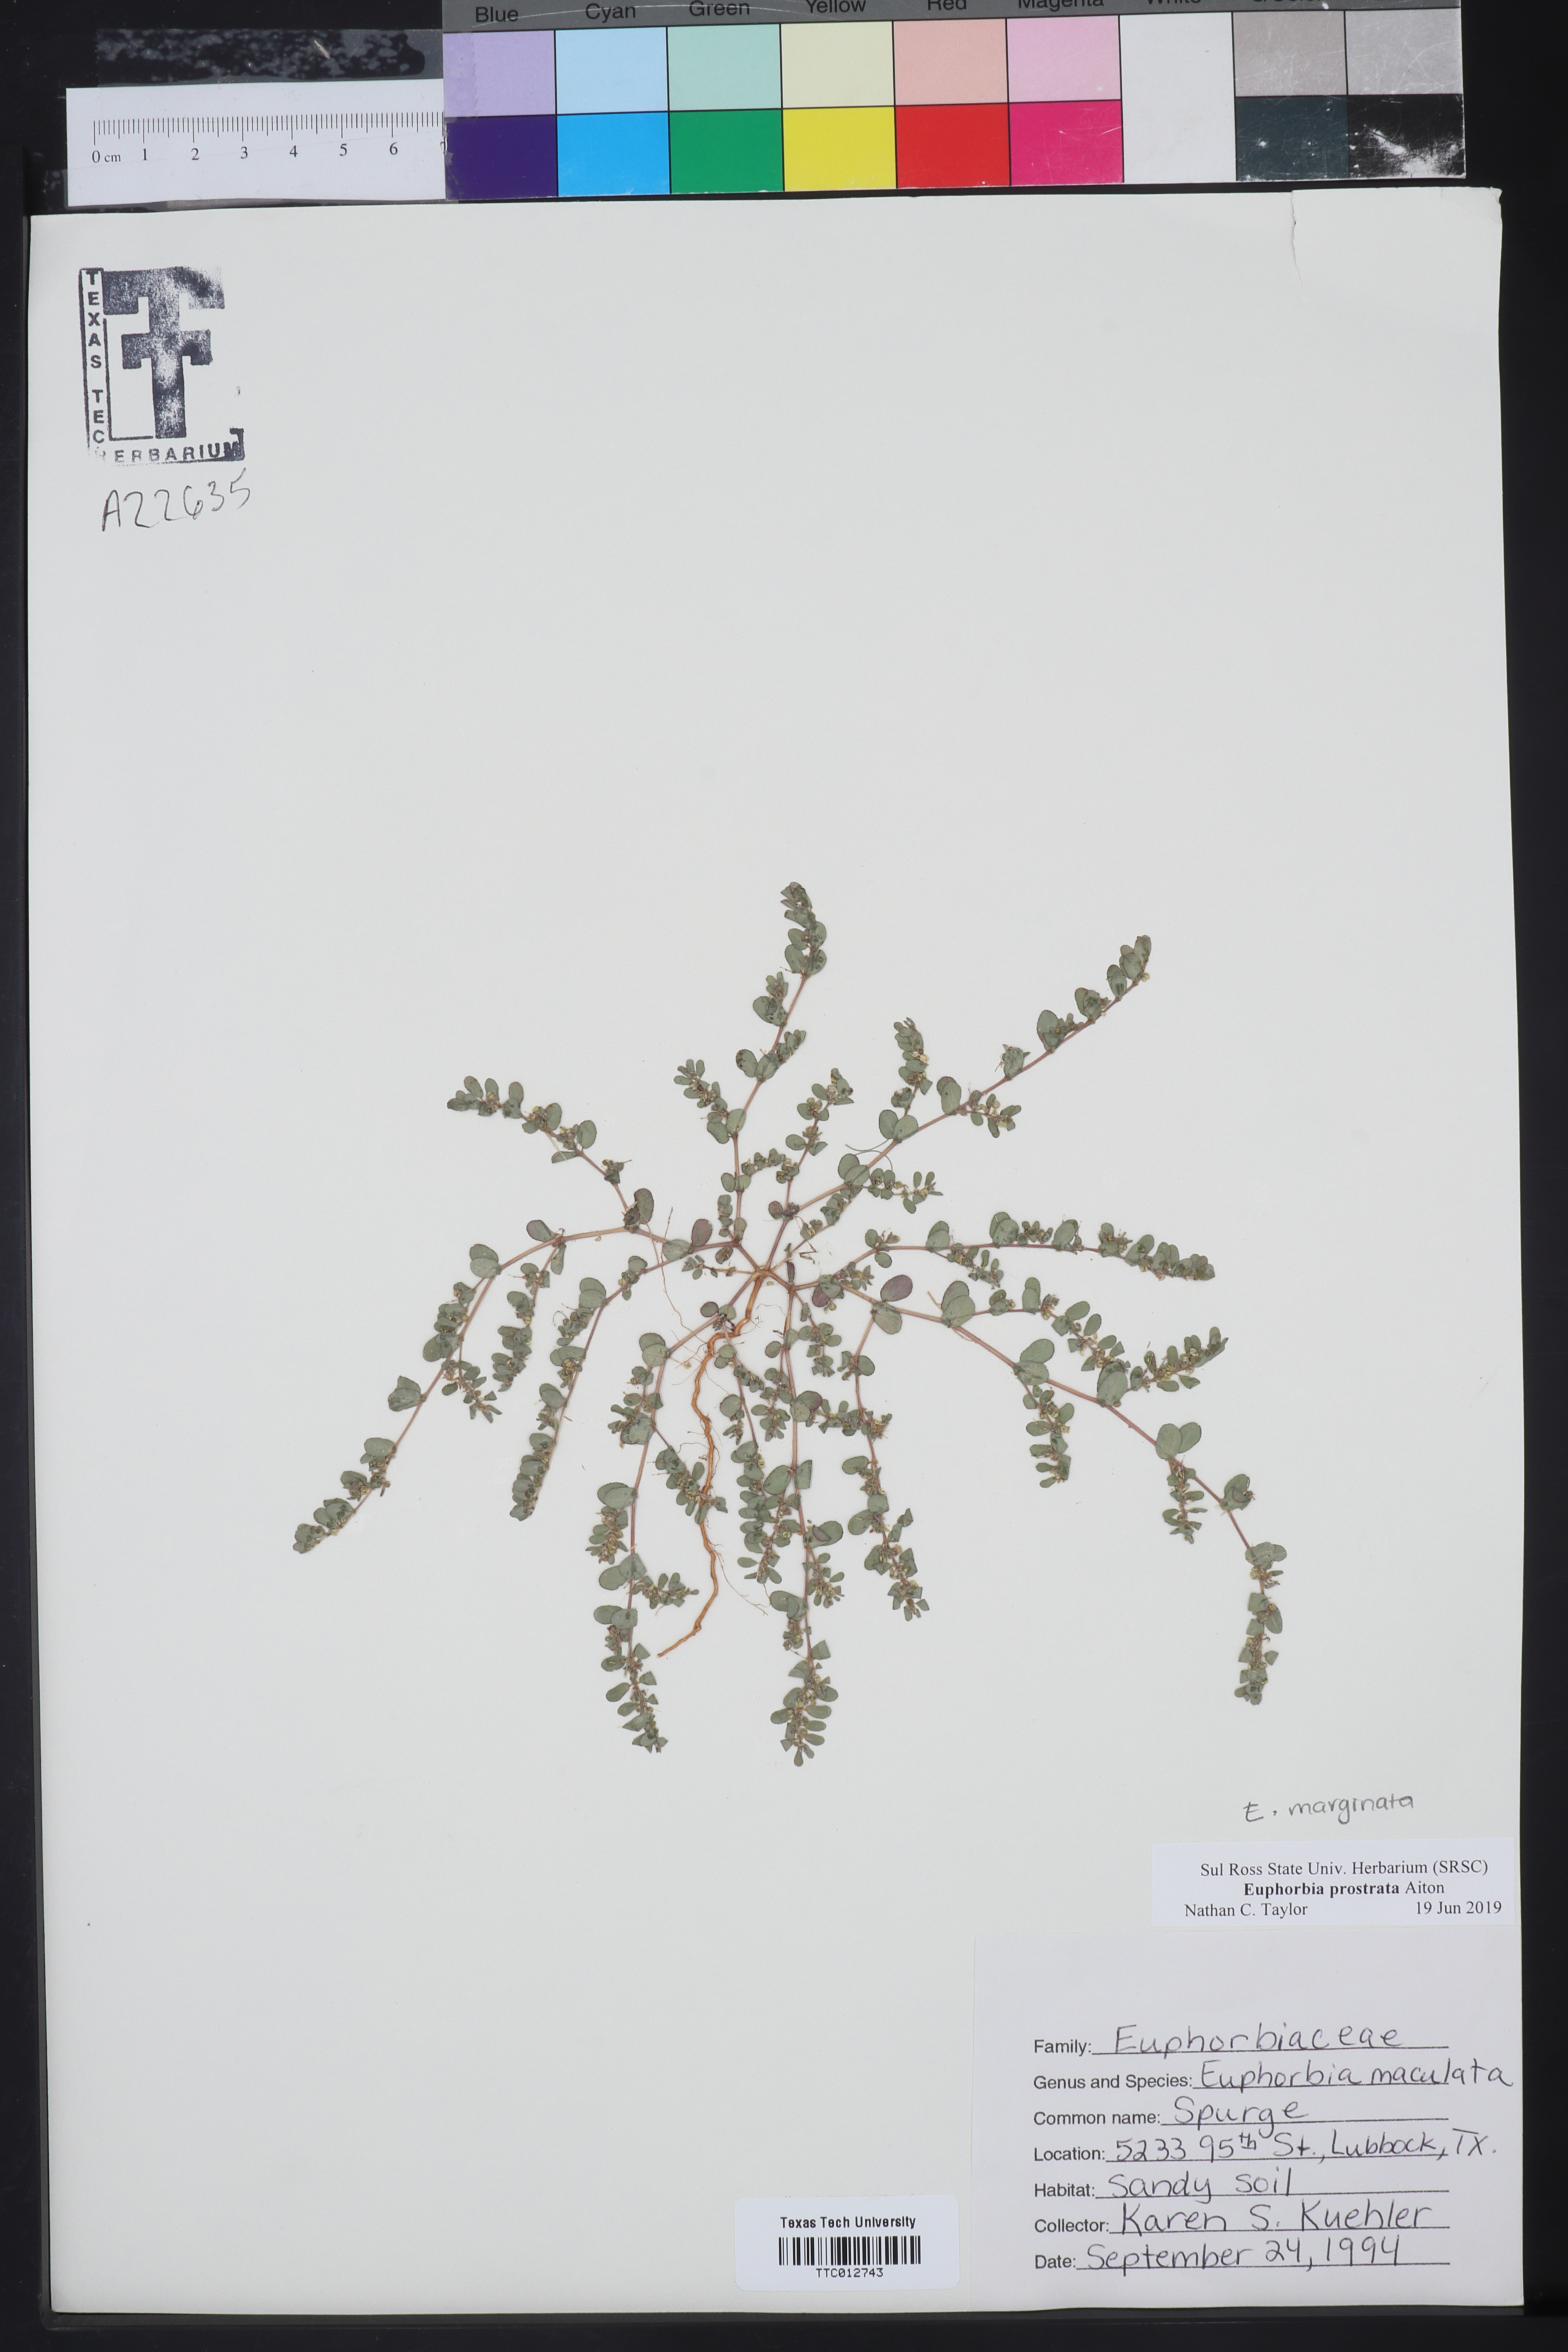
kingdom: Plantae
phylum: Tracheophyta
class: Magnoliopsida
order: Malpighiales
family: Euphorbiaceae
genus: Euphorbia
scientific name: Euphorbia prostrata
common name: Prostrate sandmat
